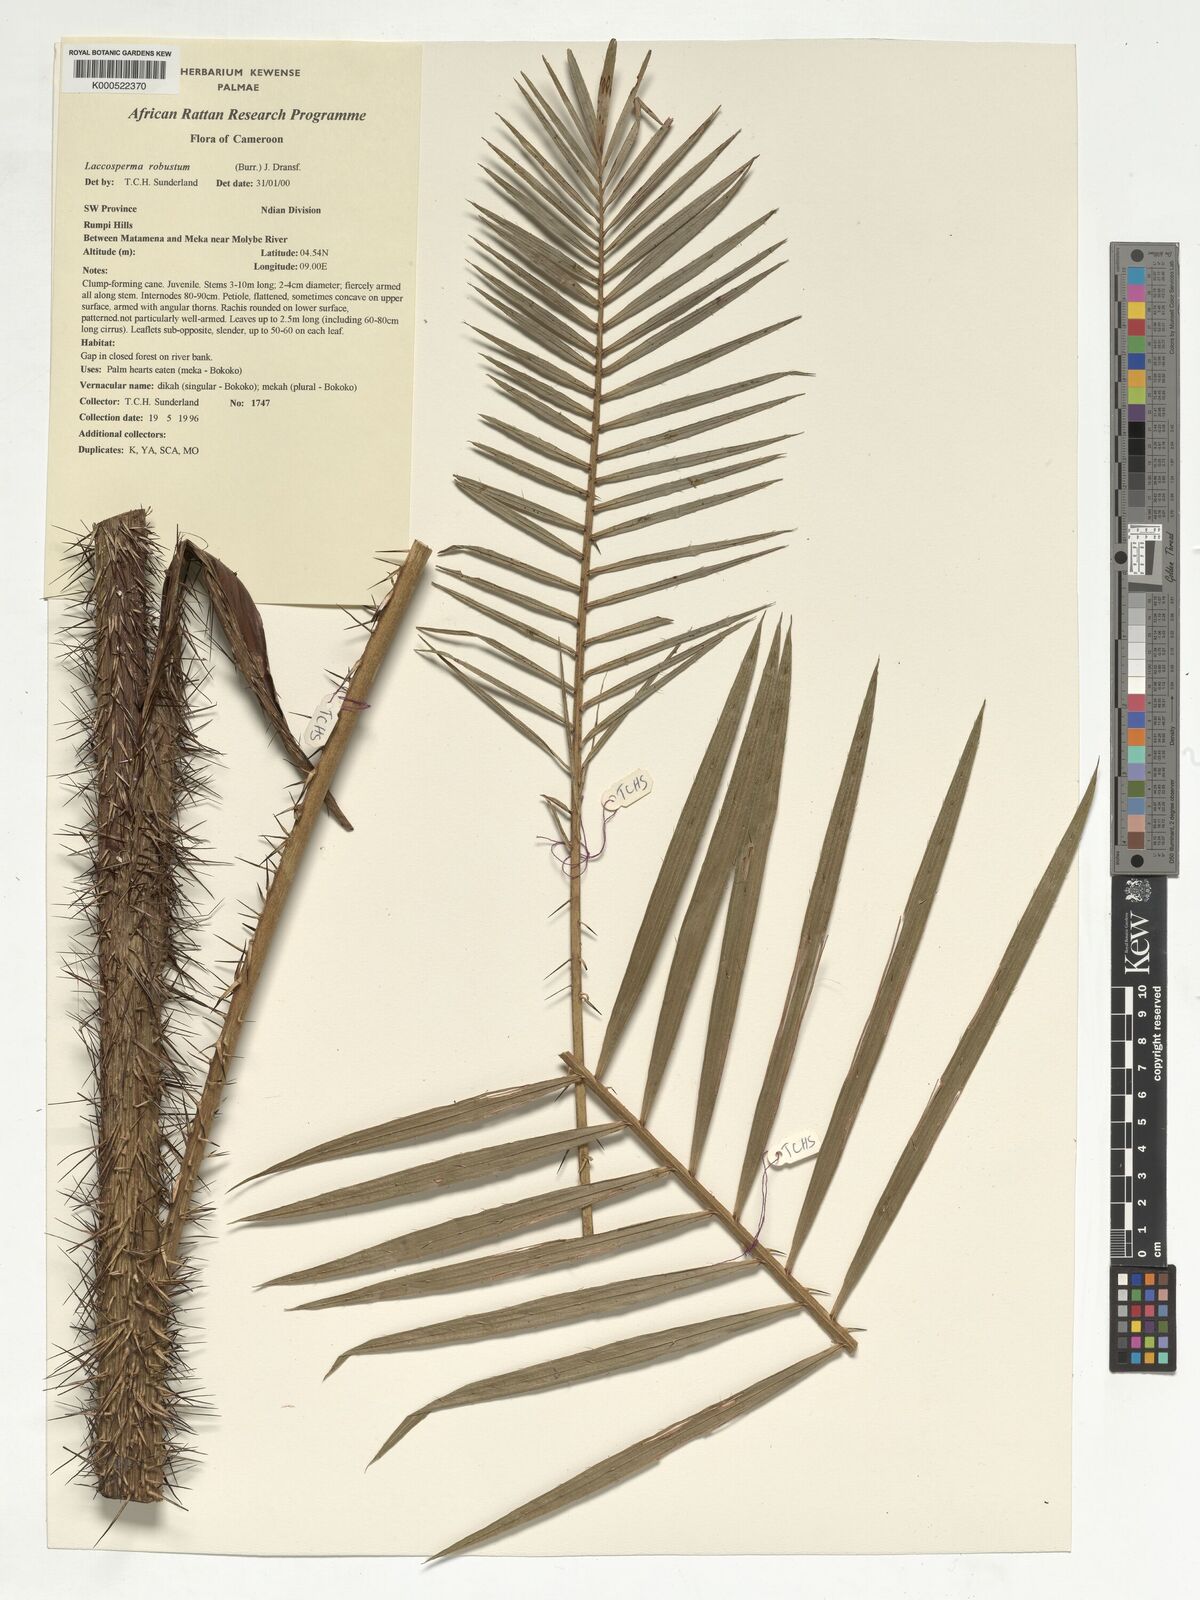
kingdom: Plantae
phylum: Tracheophyta
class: Liliopsida
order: Arecales
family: Arecaceae
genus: Laccosperma
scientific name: Laccosperma robustum
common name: Rattan
